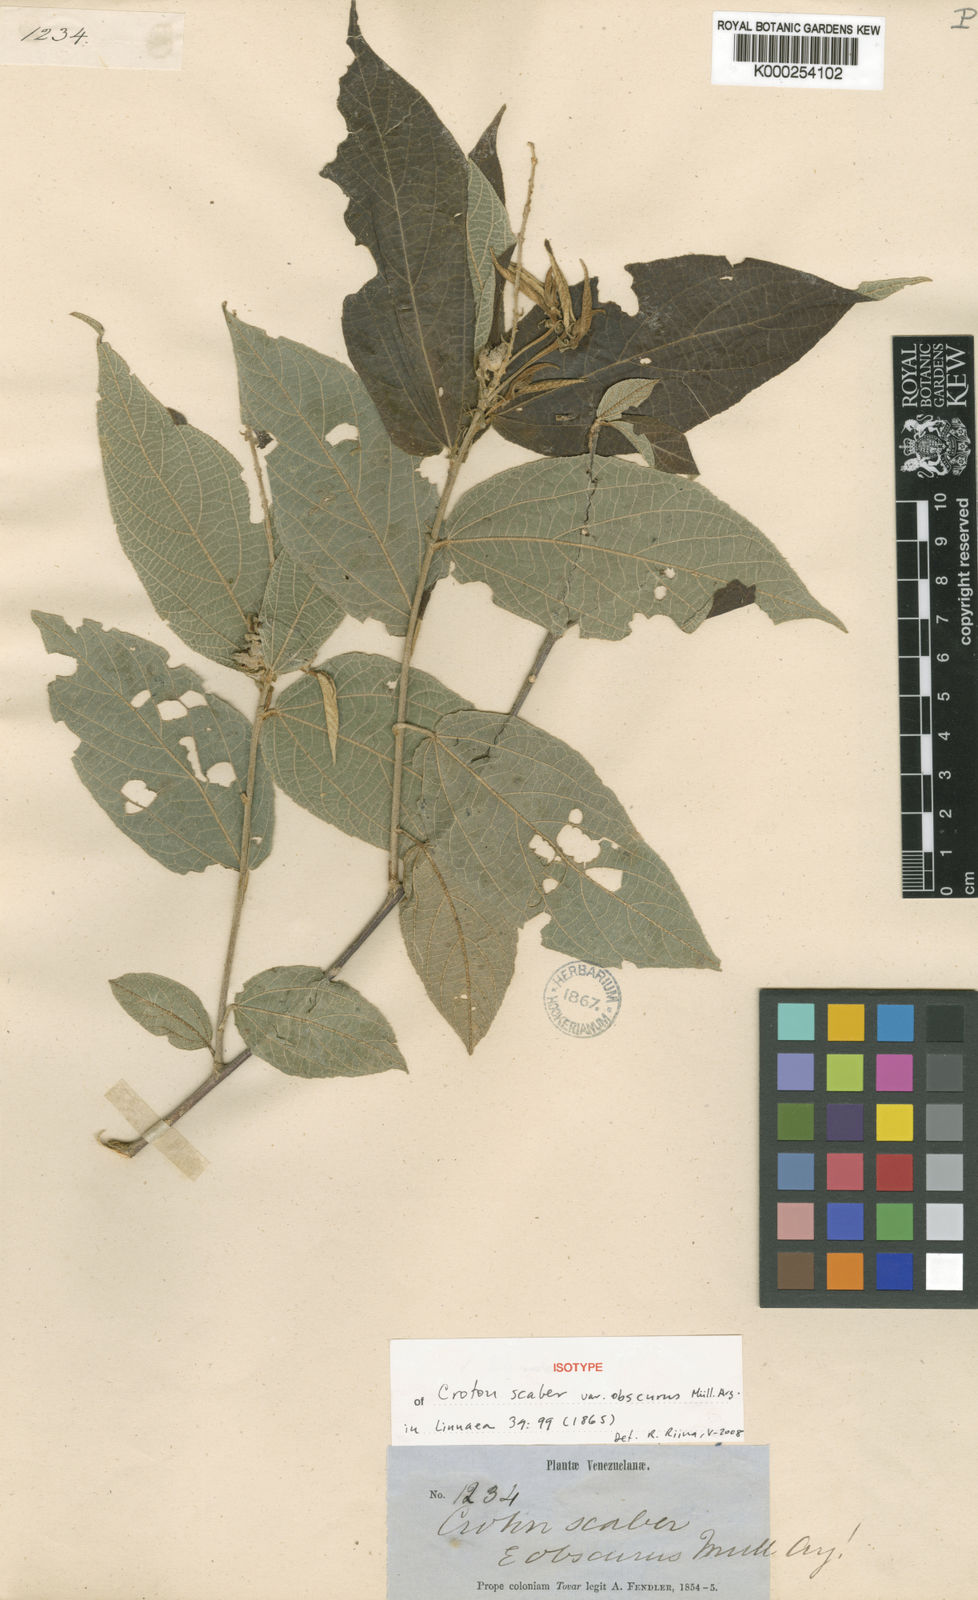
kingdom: Plantae
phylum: Tracheophyta
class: Magnoliopsida
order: Malpighiales
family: Euphorbiaceae
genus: Croton
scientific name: Croton scaber
